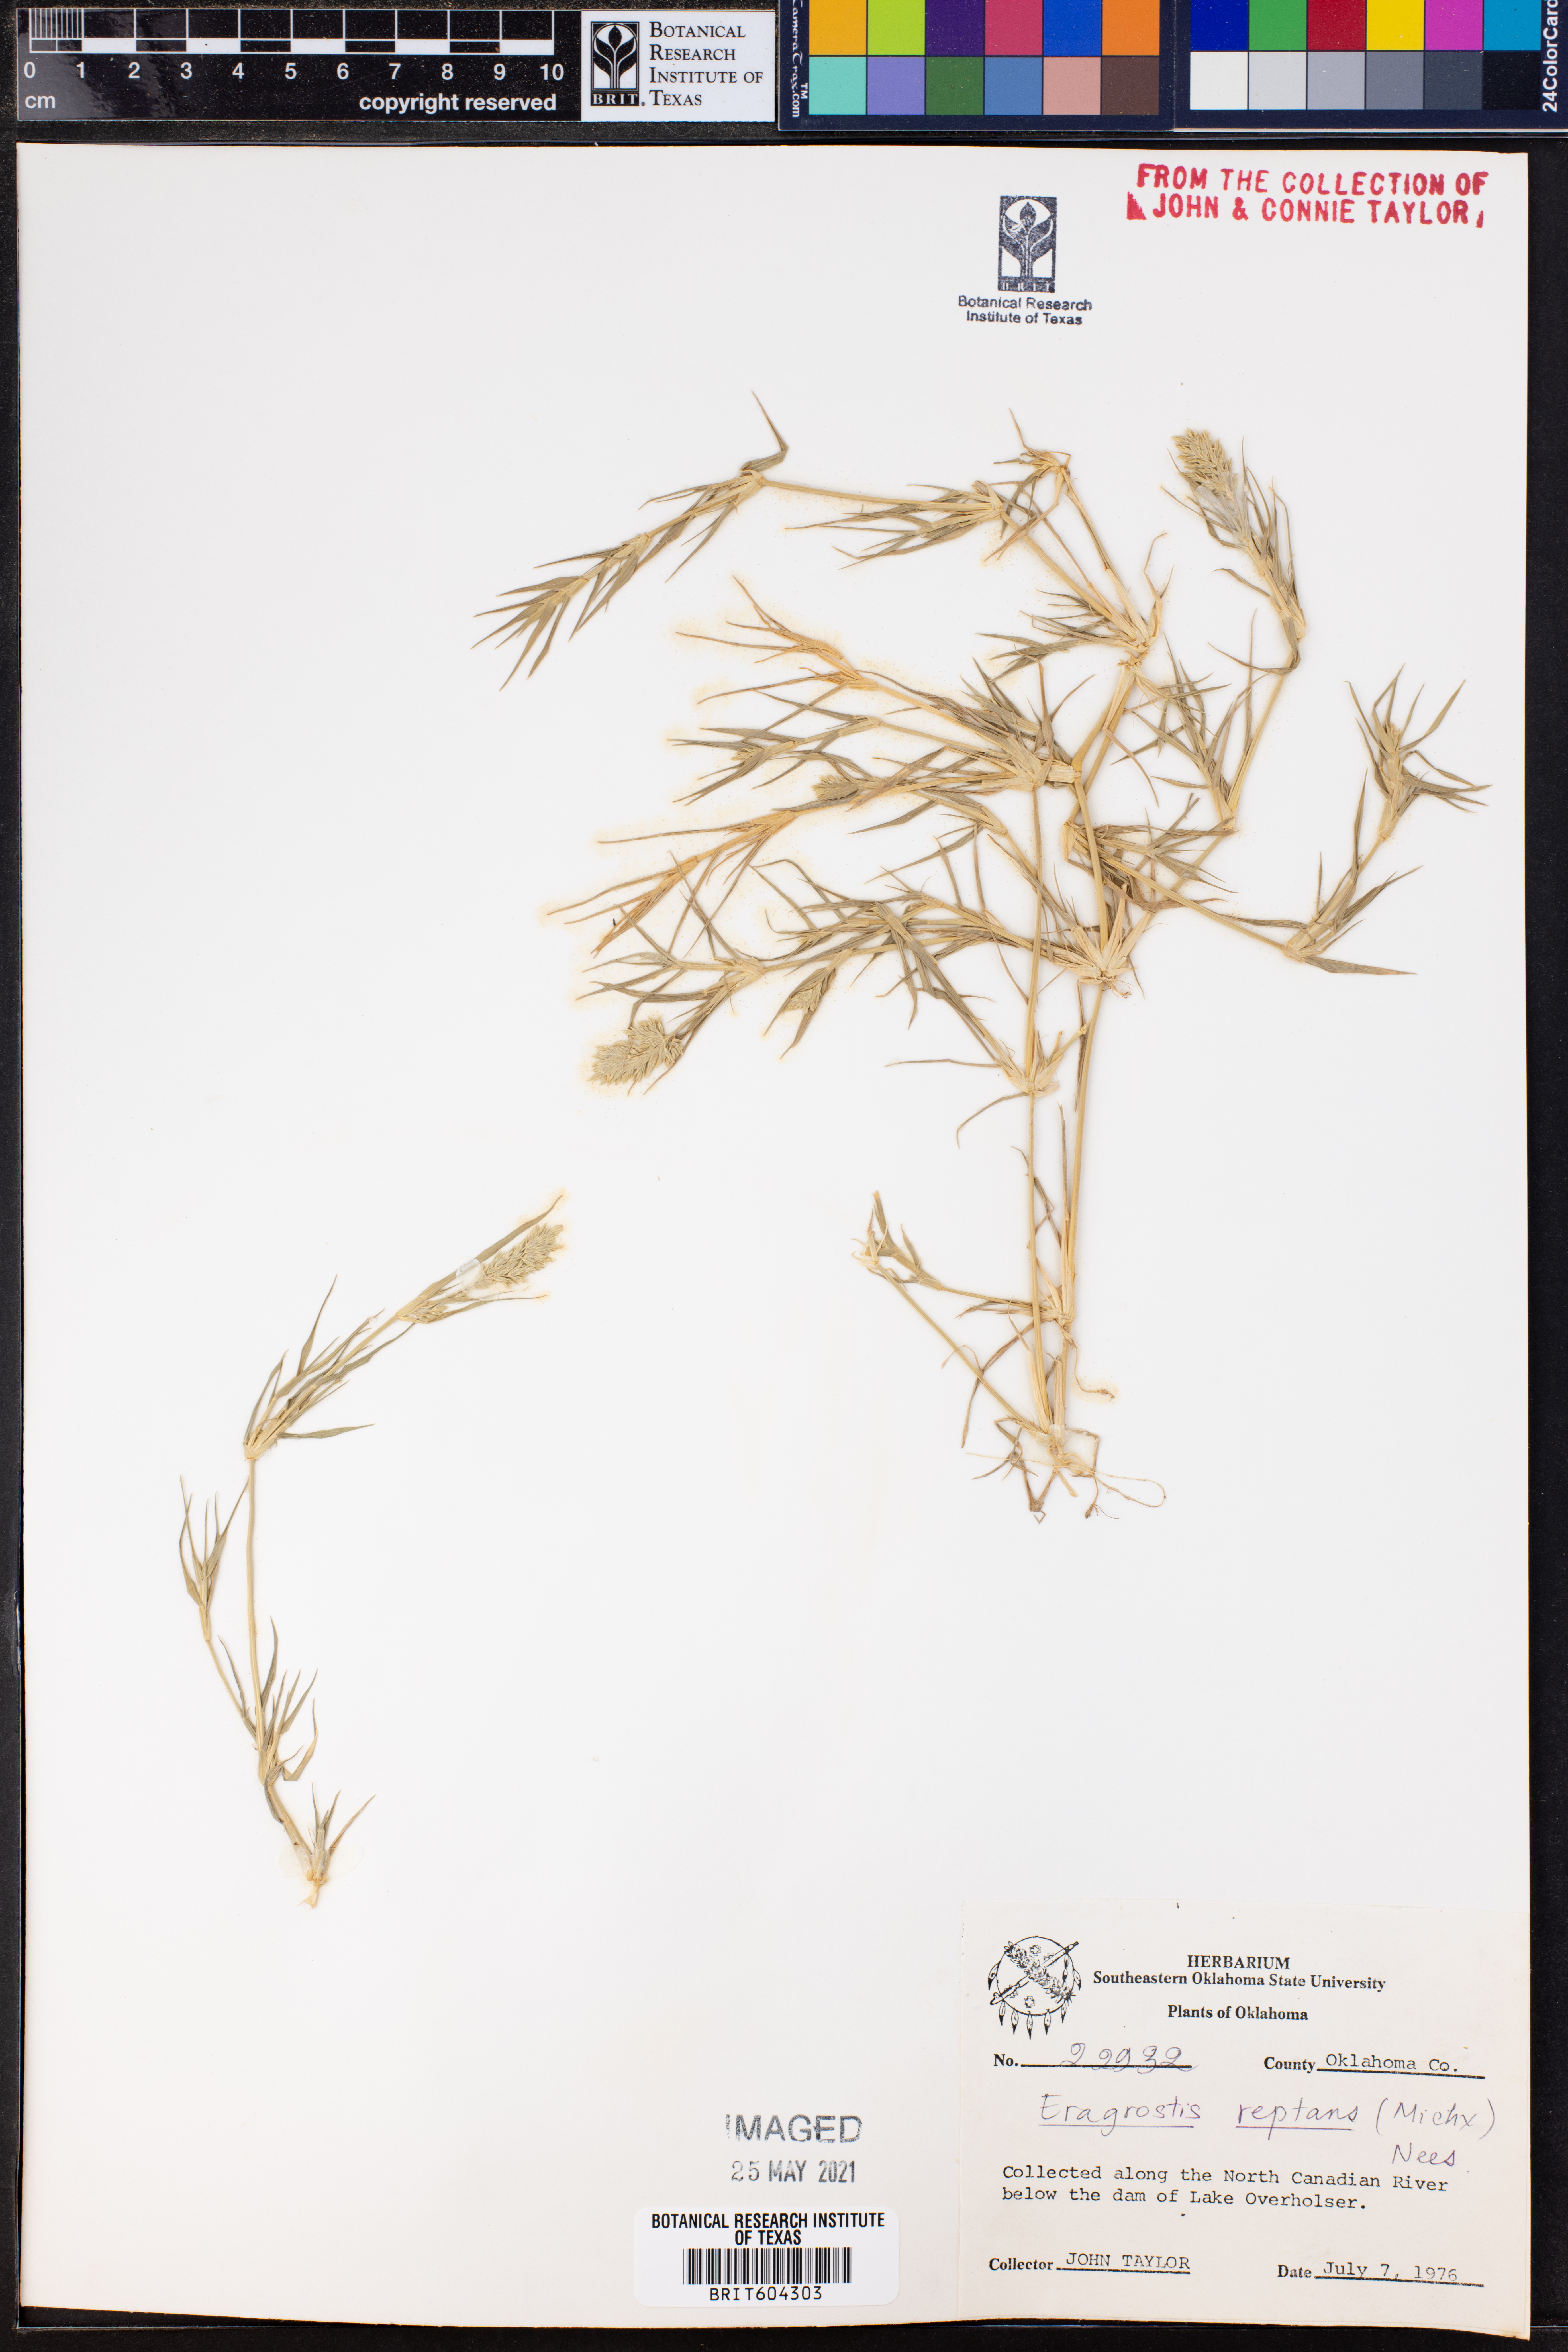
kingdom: Plantae
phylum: Tracheophyta
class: Liliopsida
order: Poales
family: Poaceae
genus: Eragrostis
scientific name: Eragrostis reptans
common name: Creeping love grass
